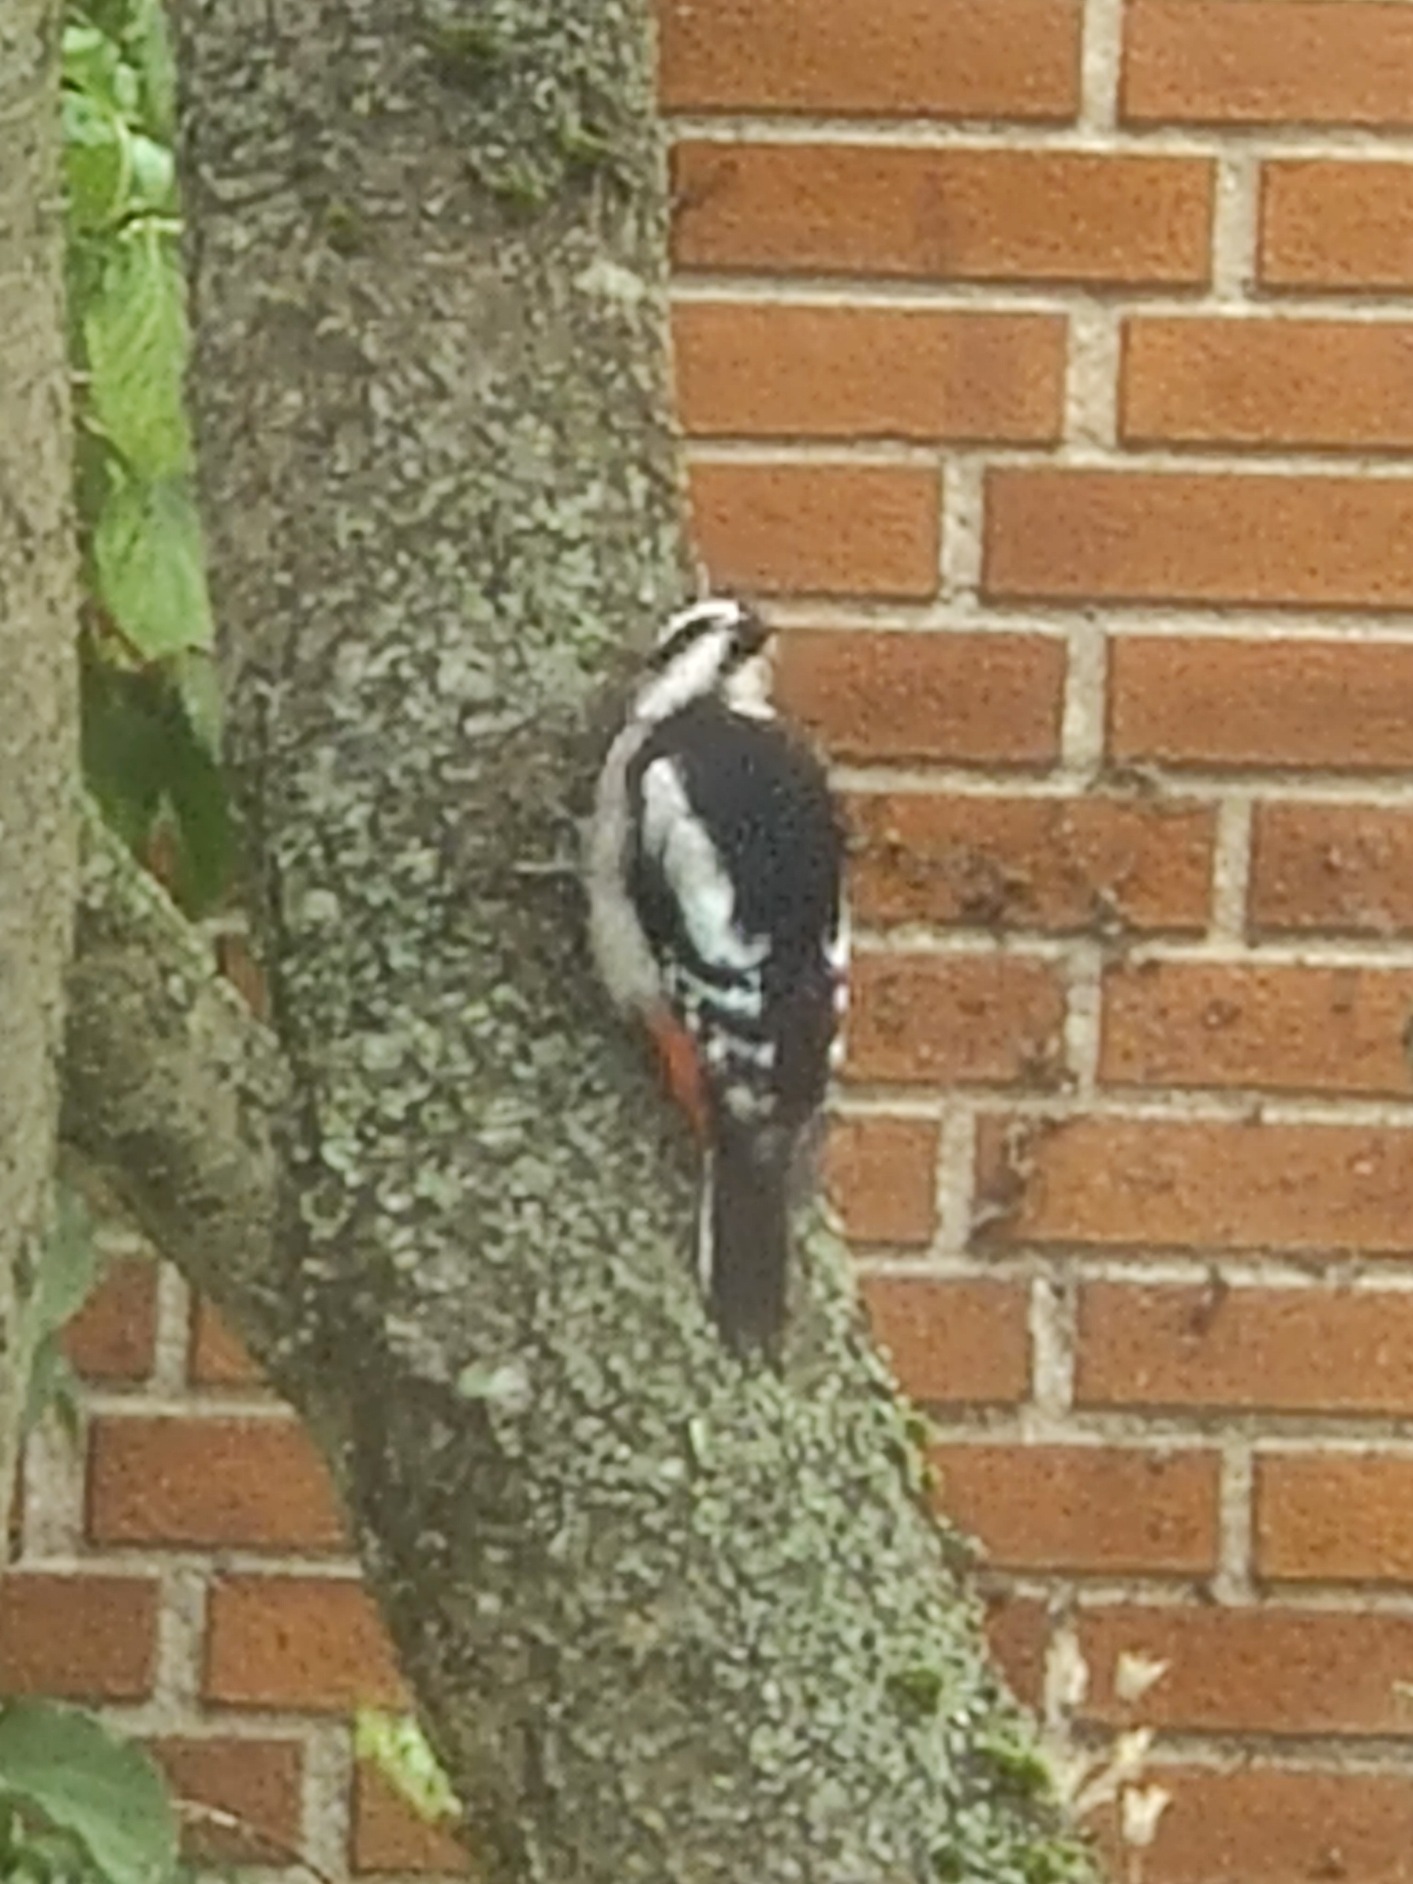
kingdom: Animalia
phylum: Chordata
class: Aves
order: Piciformes
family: Picidae
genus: Dendrocopos
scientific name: Dendrocopos major
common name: Stor flagspætte
